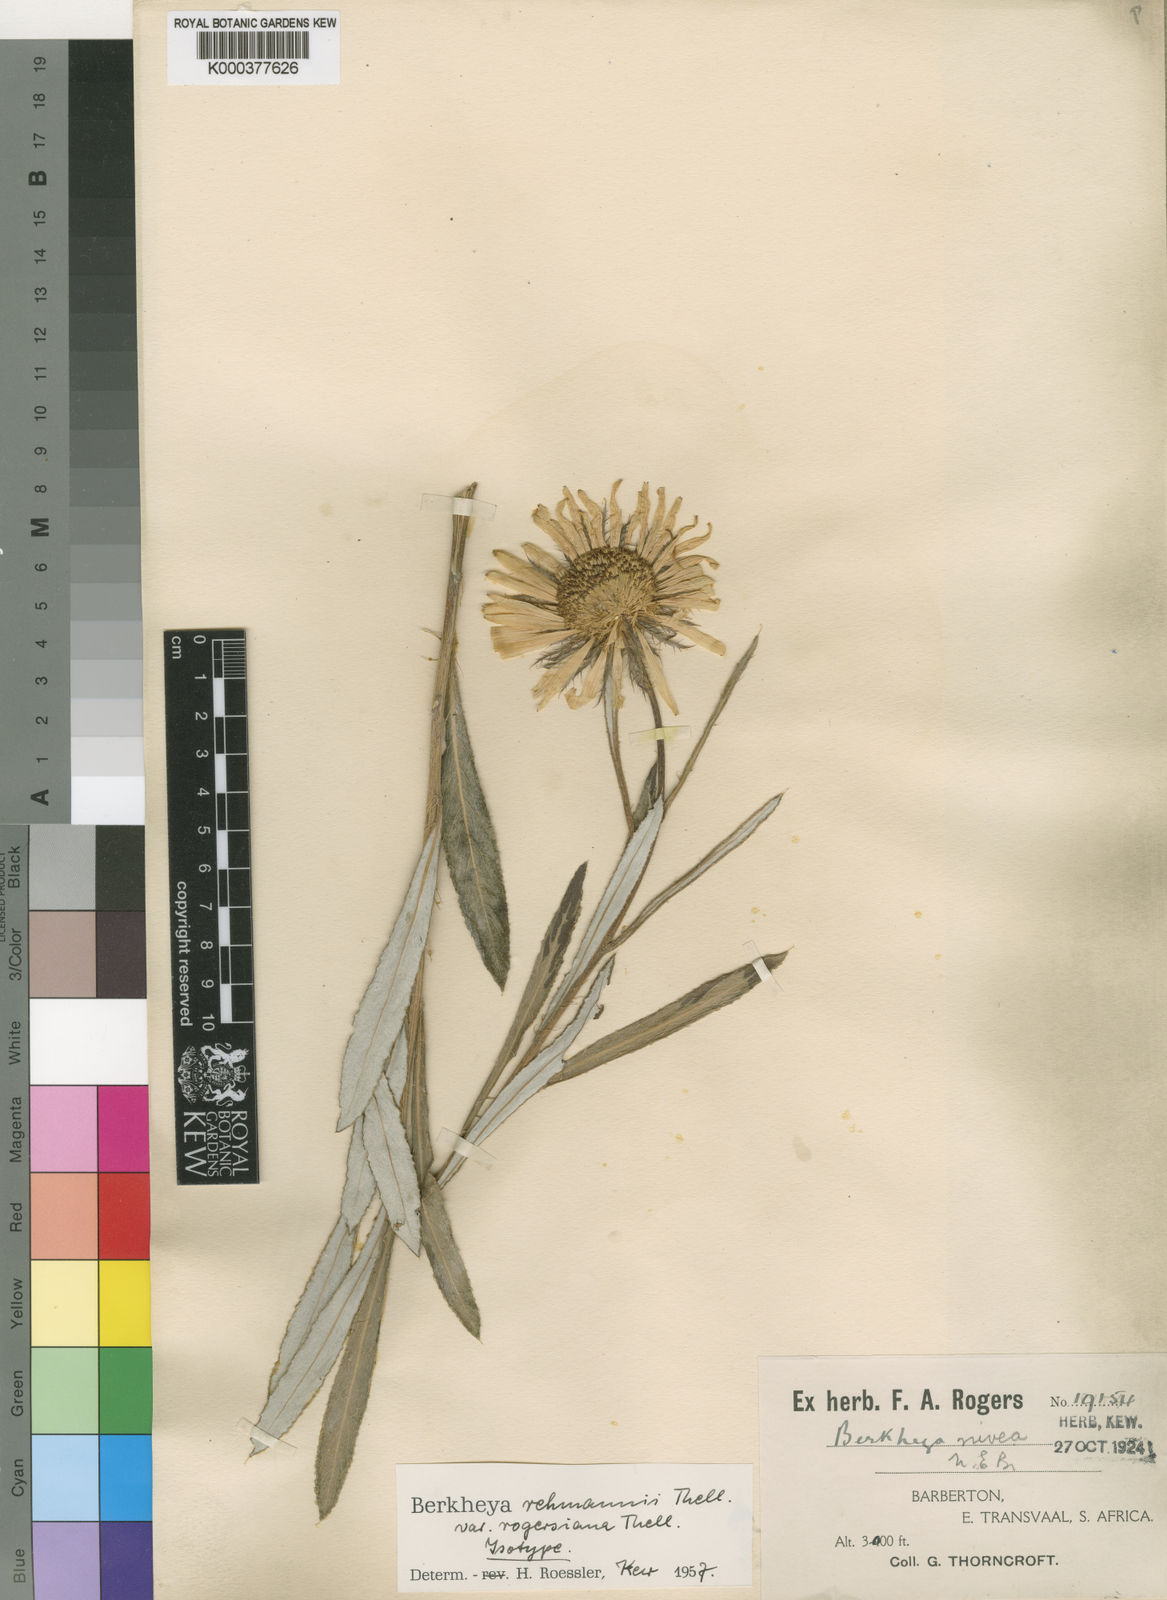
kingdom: Plantae
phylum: Tracheophyta
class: Magnoliopsida
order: Asterales
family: Asteraceae
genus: Berkheya
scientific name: Berkheya
